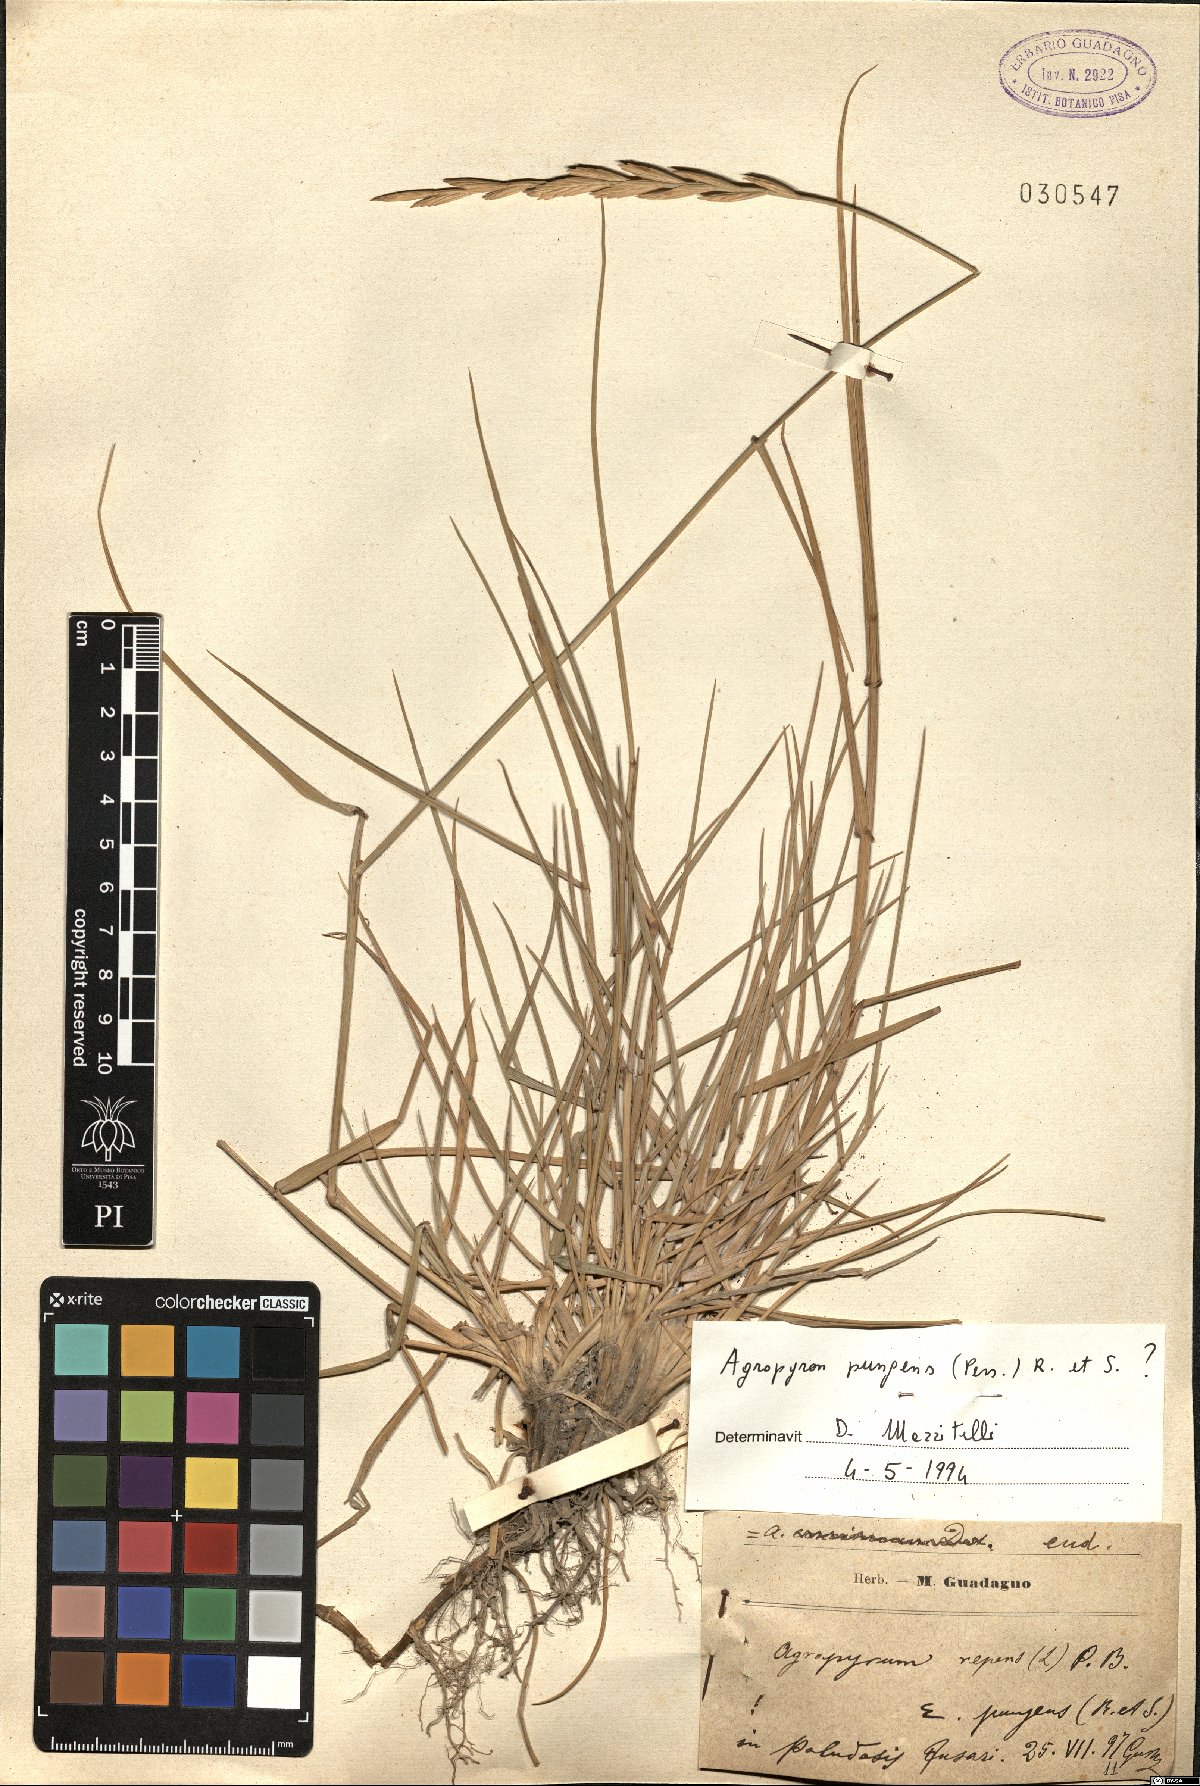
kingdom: Plantae
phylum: Tracheophyta
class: Liliopsida
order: Poales
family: Poaceae
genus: Elymus
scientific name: Elymus pungens
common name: Sea couch
